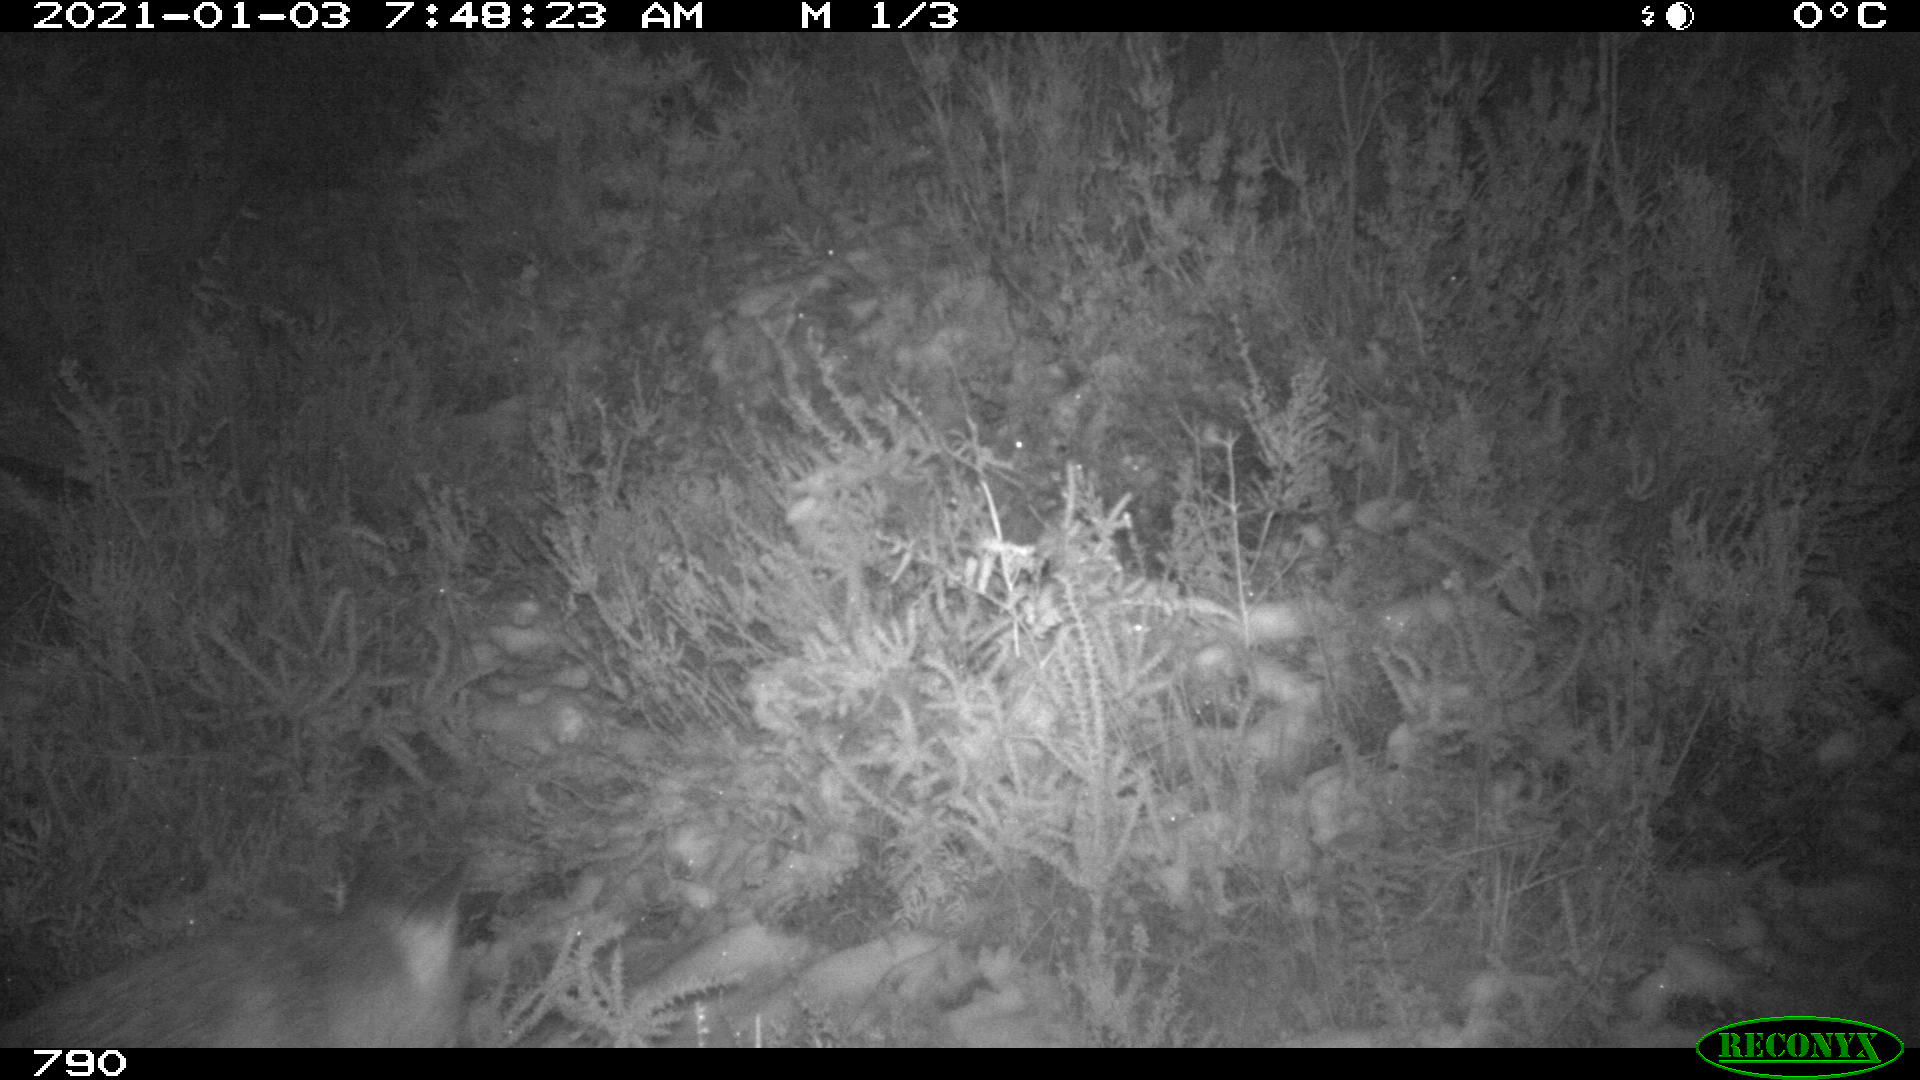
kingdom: Animalia
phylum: Chordata
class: Mammalia
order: Carnivora
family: Canidae
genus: Vulpes
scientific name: Vulpes vulpes
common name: Red fox
